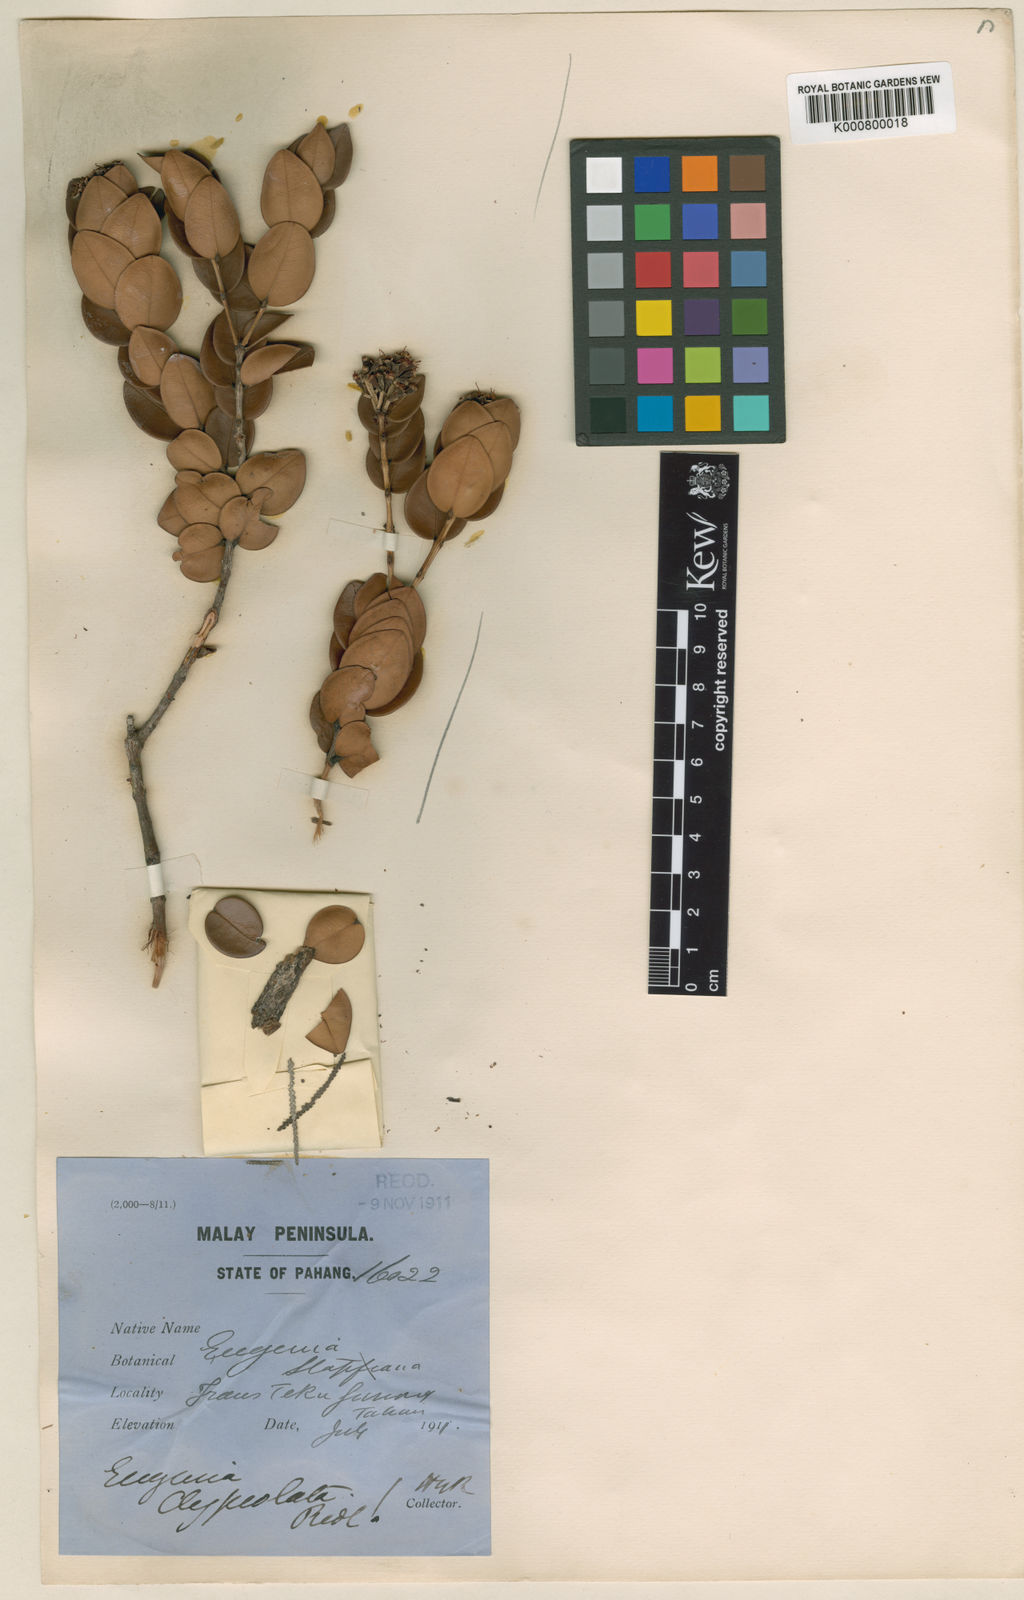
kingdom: Plantae
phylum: Tracheophyta
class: Magnoliopsida
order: Myrtales
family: Myrtaceae
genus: Syzygium
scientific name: Syzygium clypeolatum
